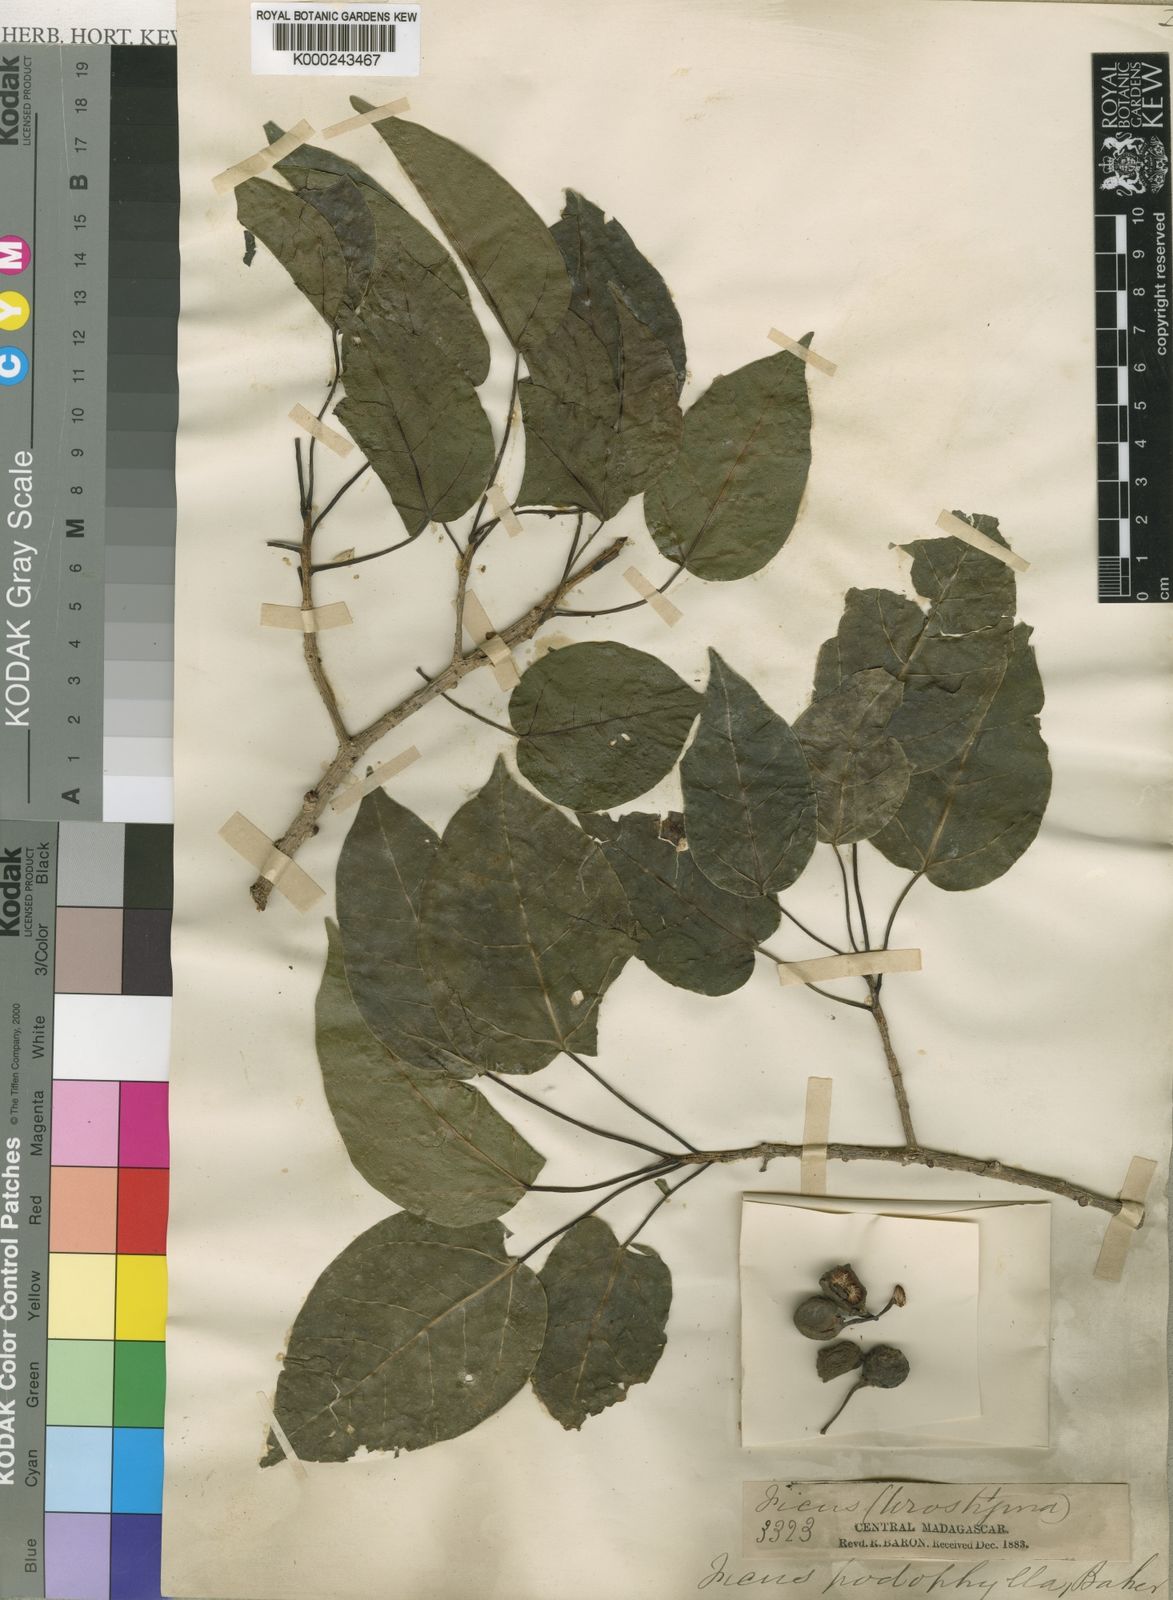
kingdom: Plantae
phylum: Tracheophyta
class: Magnoliopsida
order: Rosales
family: Moraceae
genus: Ficus
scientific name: Ficus polita
